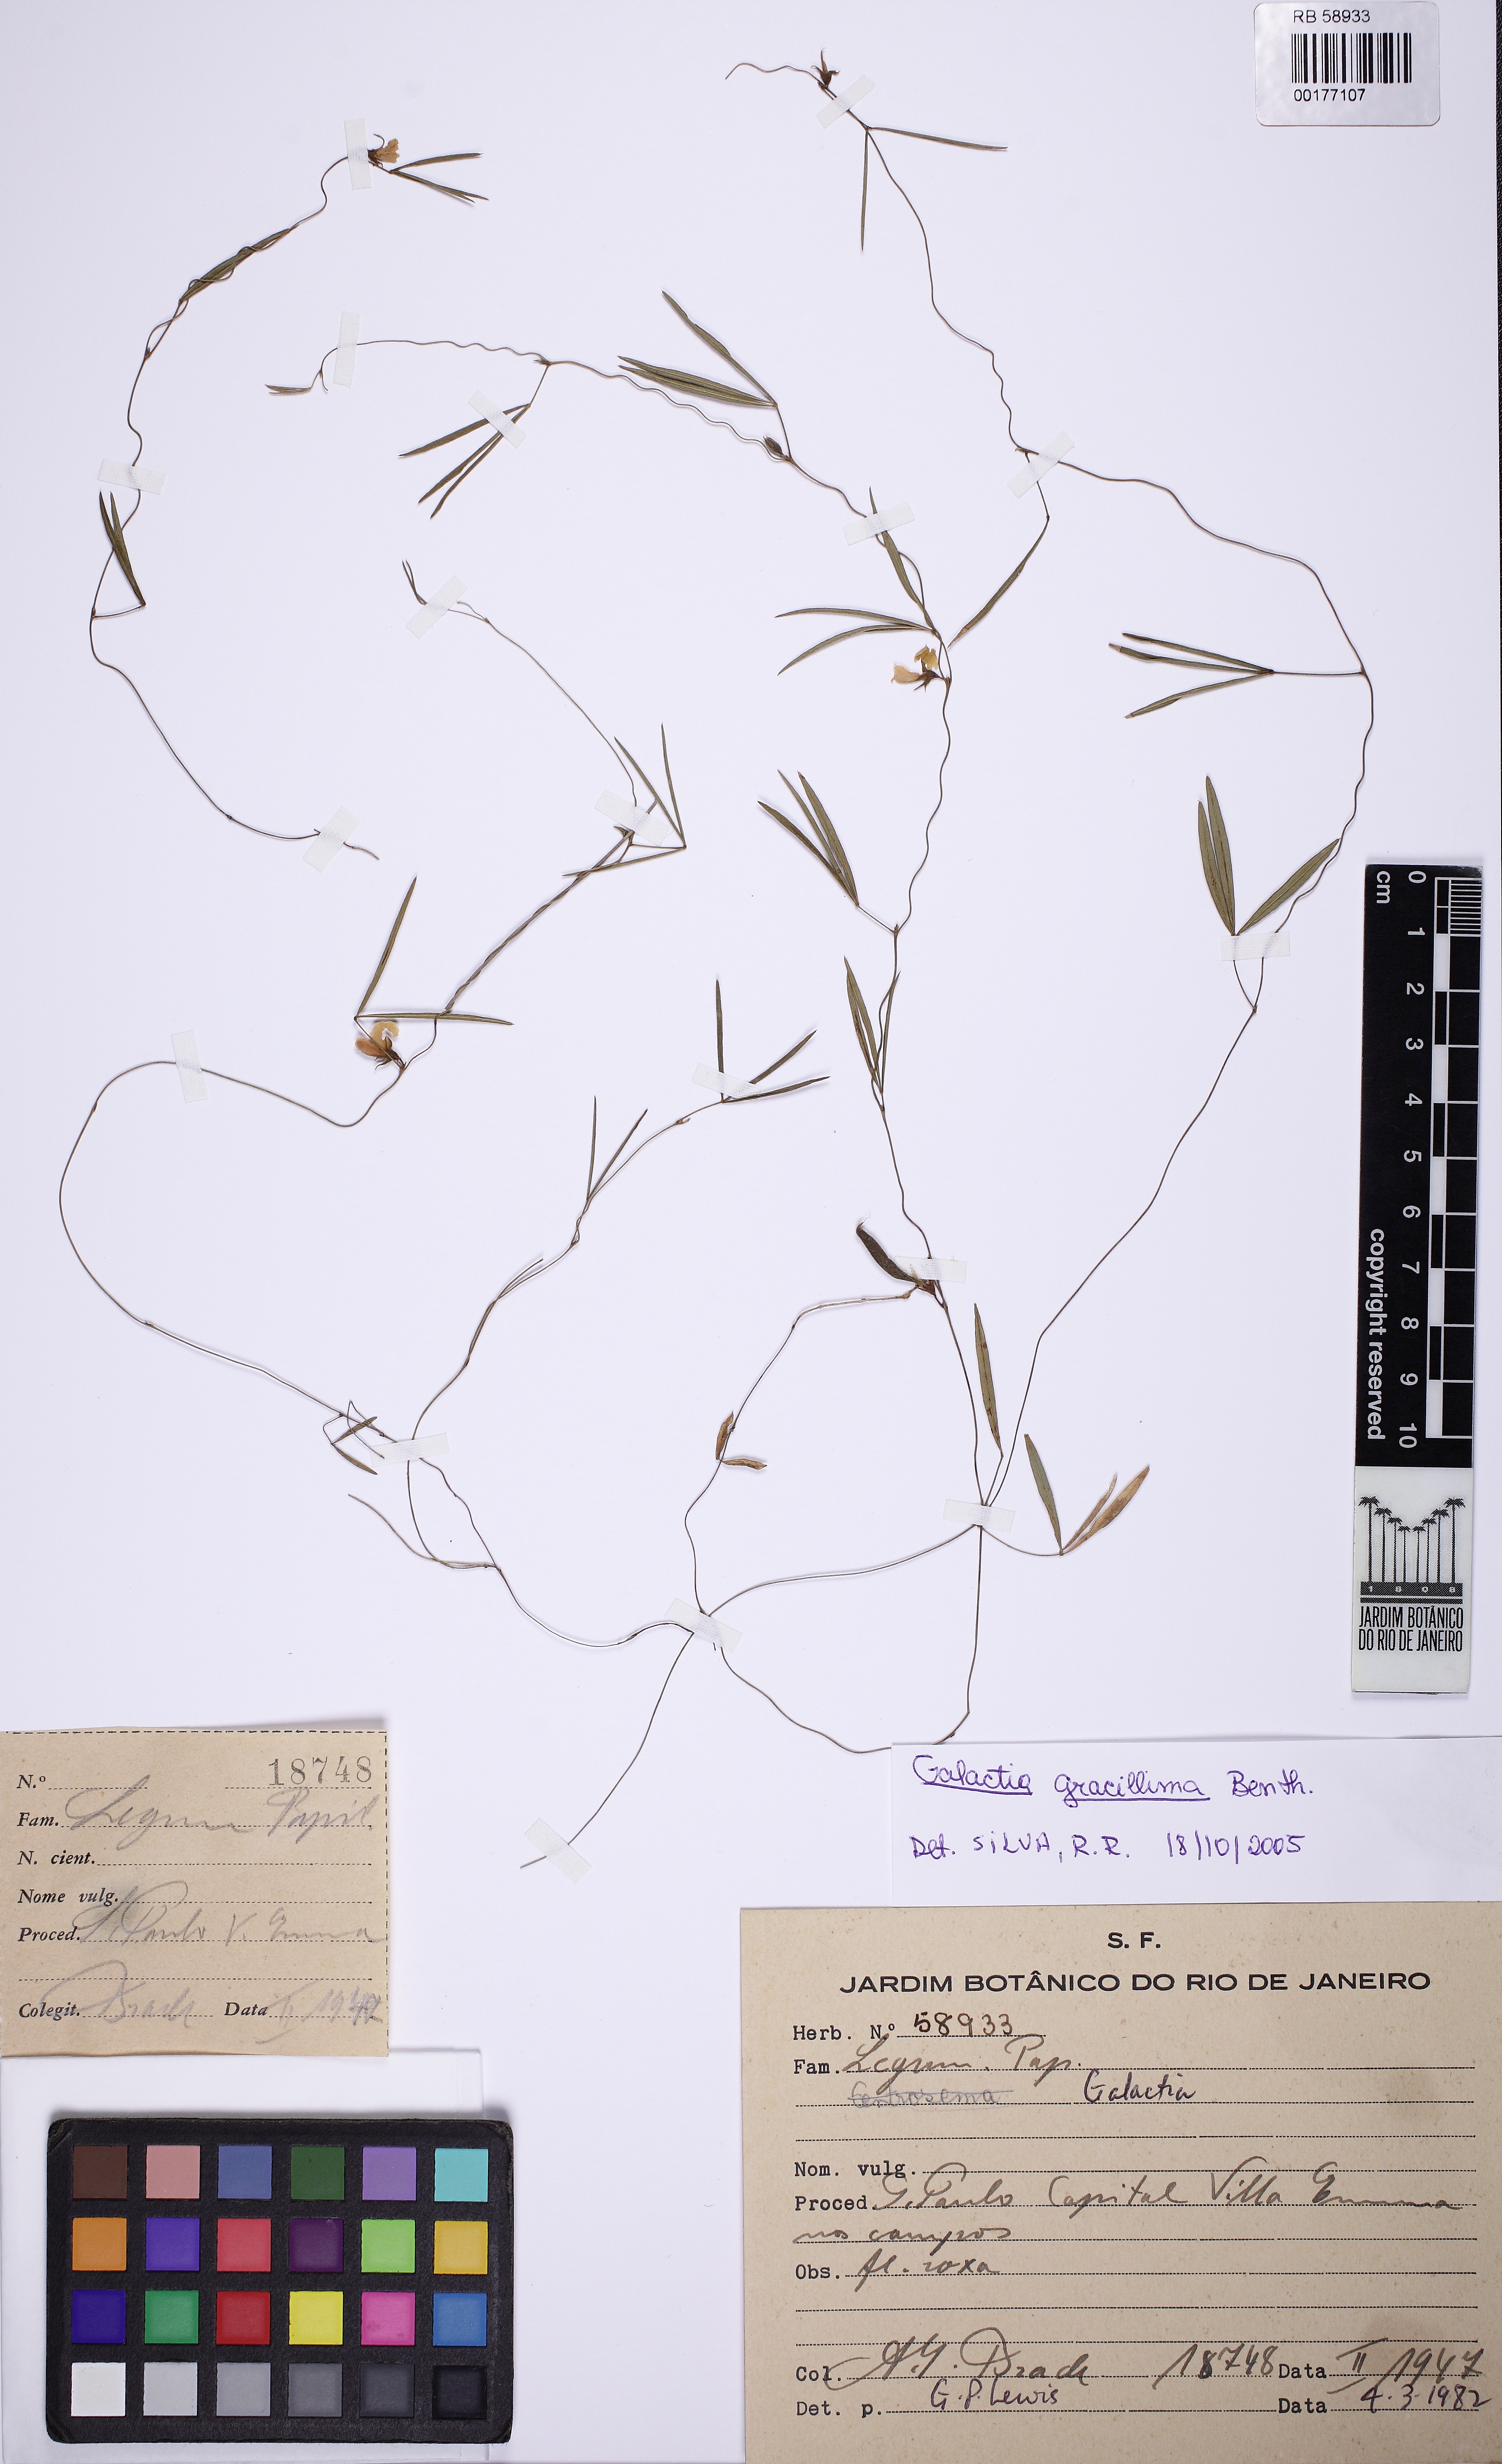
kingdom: Plantae
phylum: Tracheophyta
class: Magnoliopsida
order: Fabales
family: Fabaceae
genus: Betencourtia
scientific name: Betencourtia gracillima
